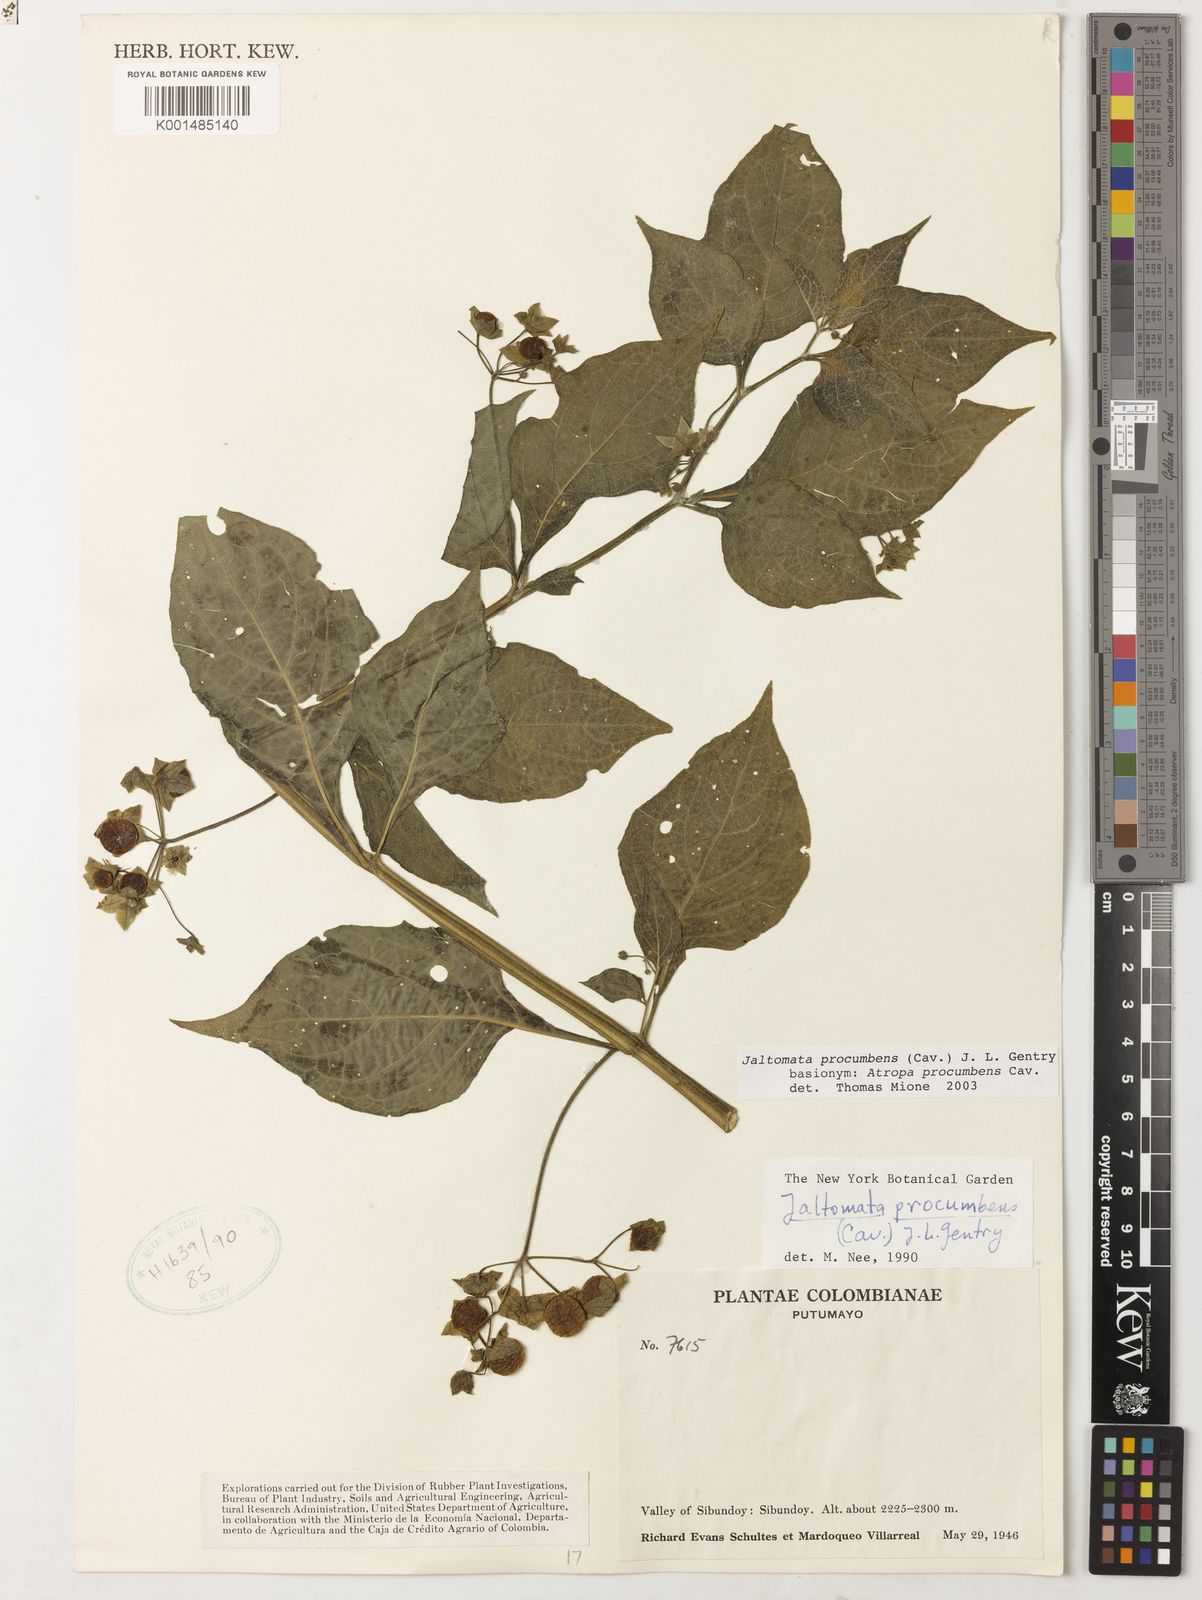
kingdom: Plantae
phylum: Tracheophyta
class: Magnoliopsida
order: Solanales
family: Solanaceae
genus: Jaltomata
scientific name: Jaltomata procumbens
